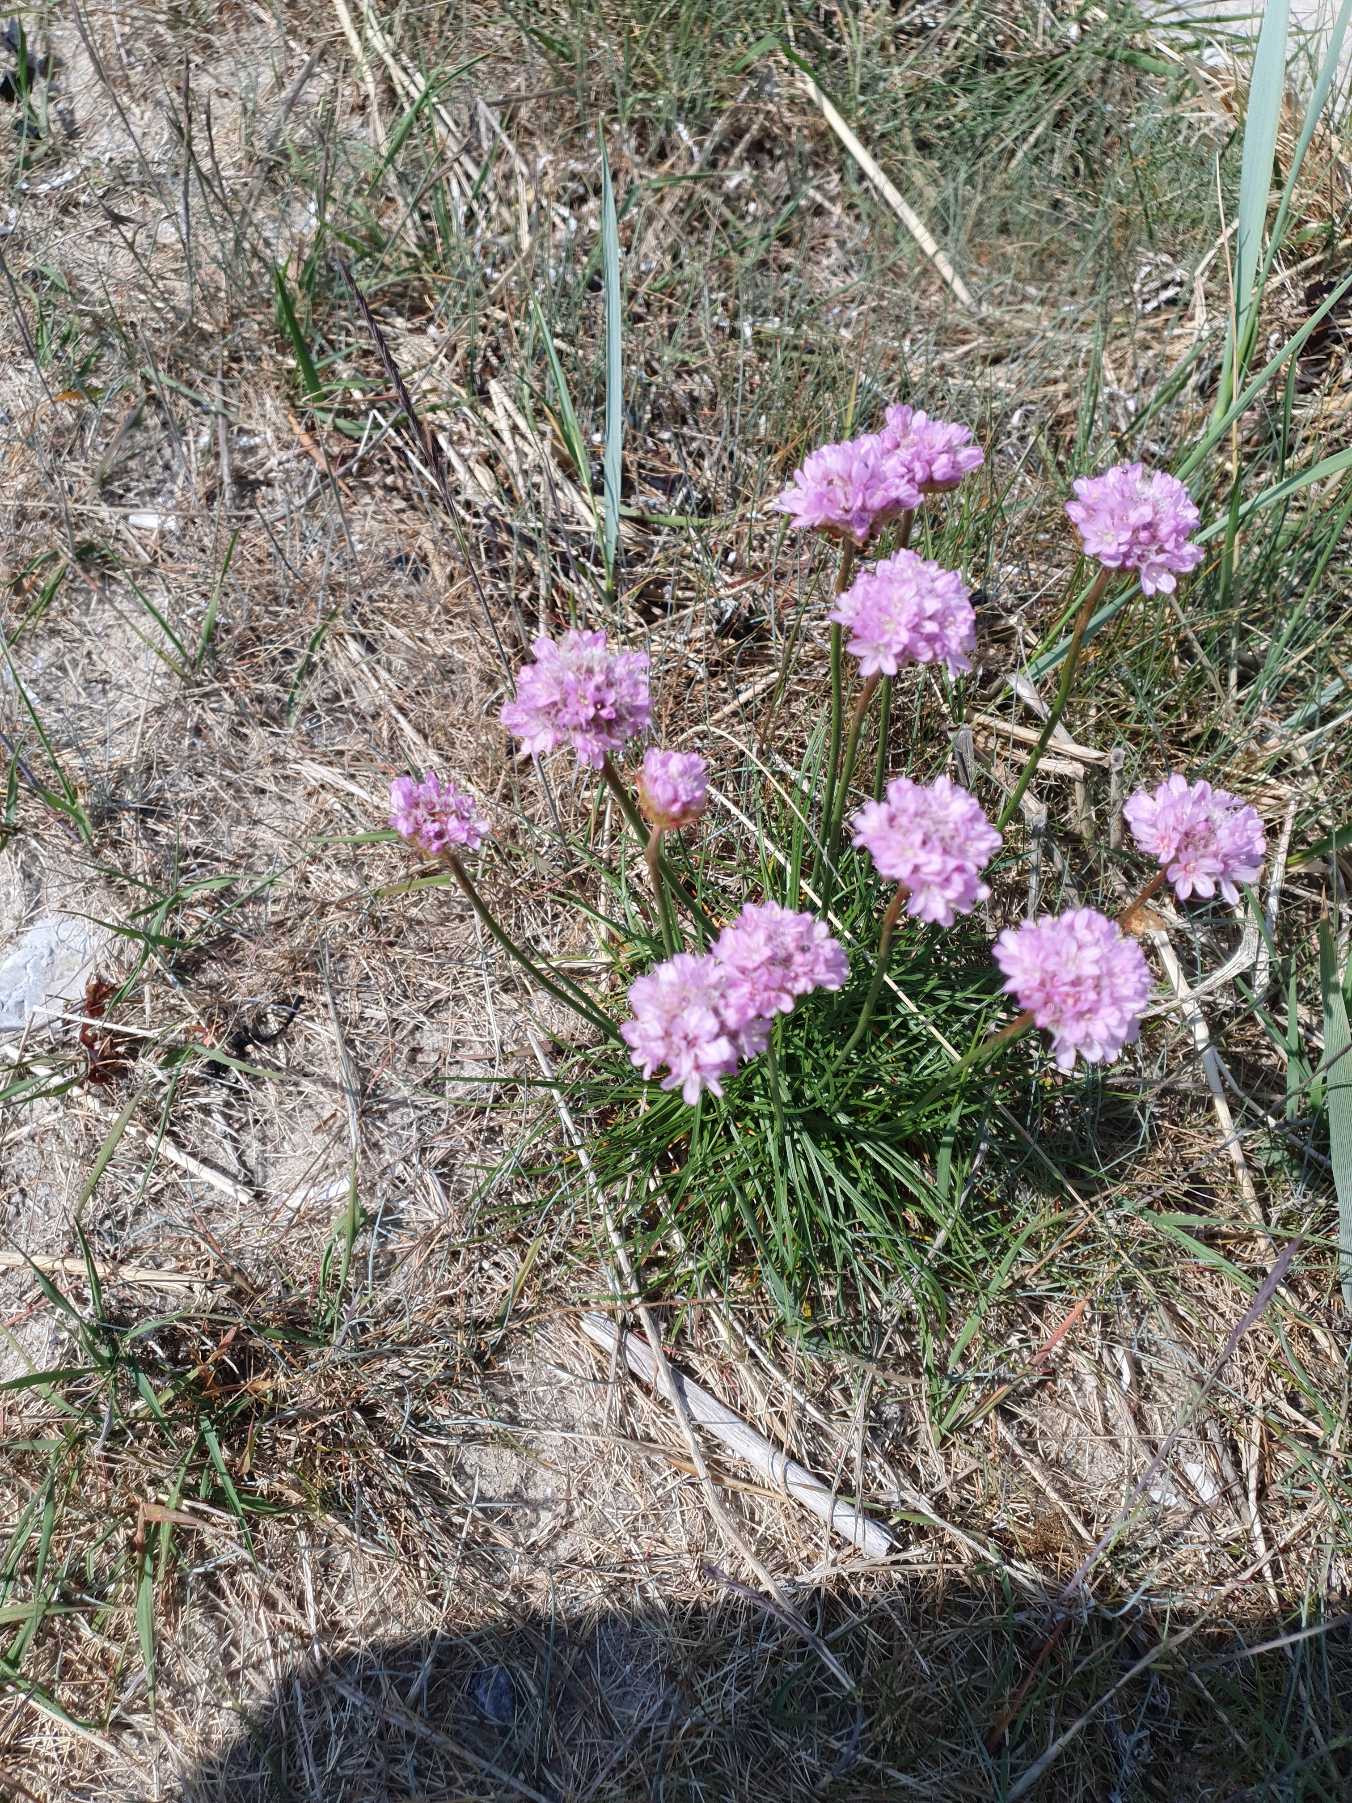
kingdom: Plantae
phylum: Tracheophyta
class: Magnoliopsida
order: Caryophyllales
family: Plumbaginaceae
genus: Armeria
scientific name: Armeria maritima
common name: Engelskgræs
